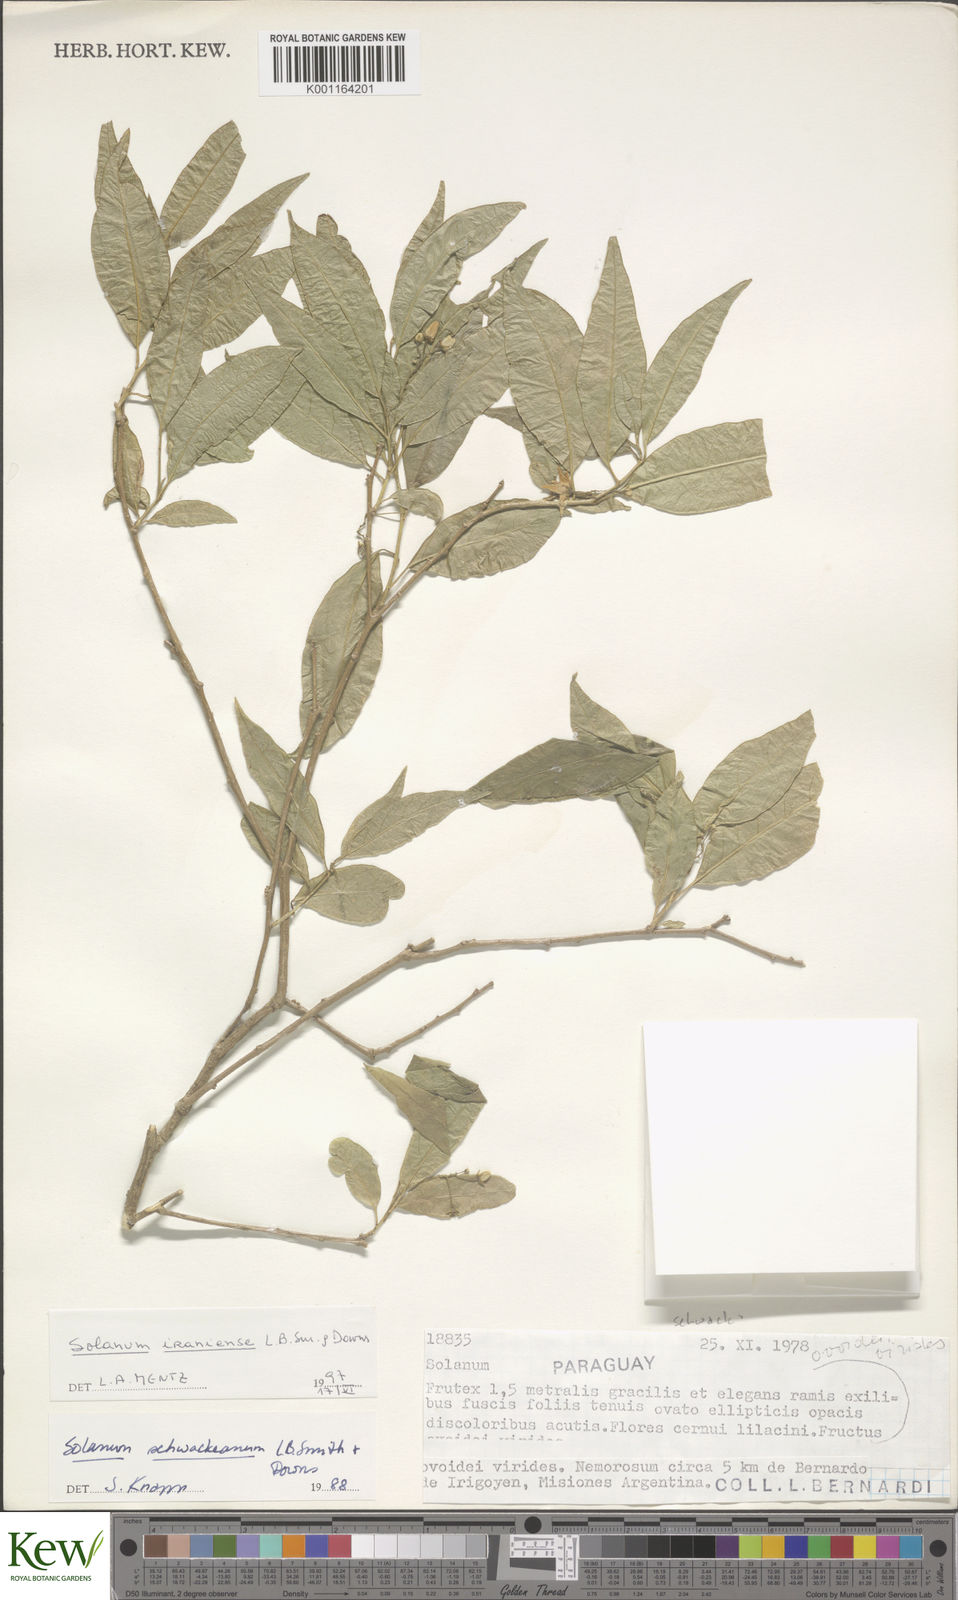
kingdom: Plantae
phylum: Tracheophyta
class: Magnoliopsida
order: Solanales
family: Solanaceae
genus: Solanum
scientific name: Solanum cylindricum
